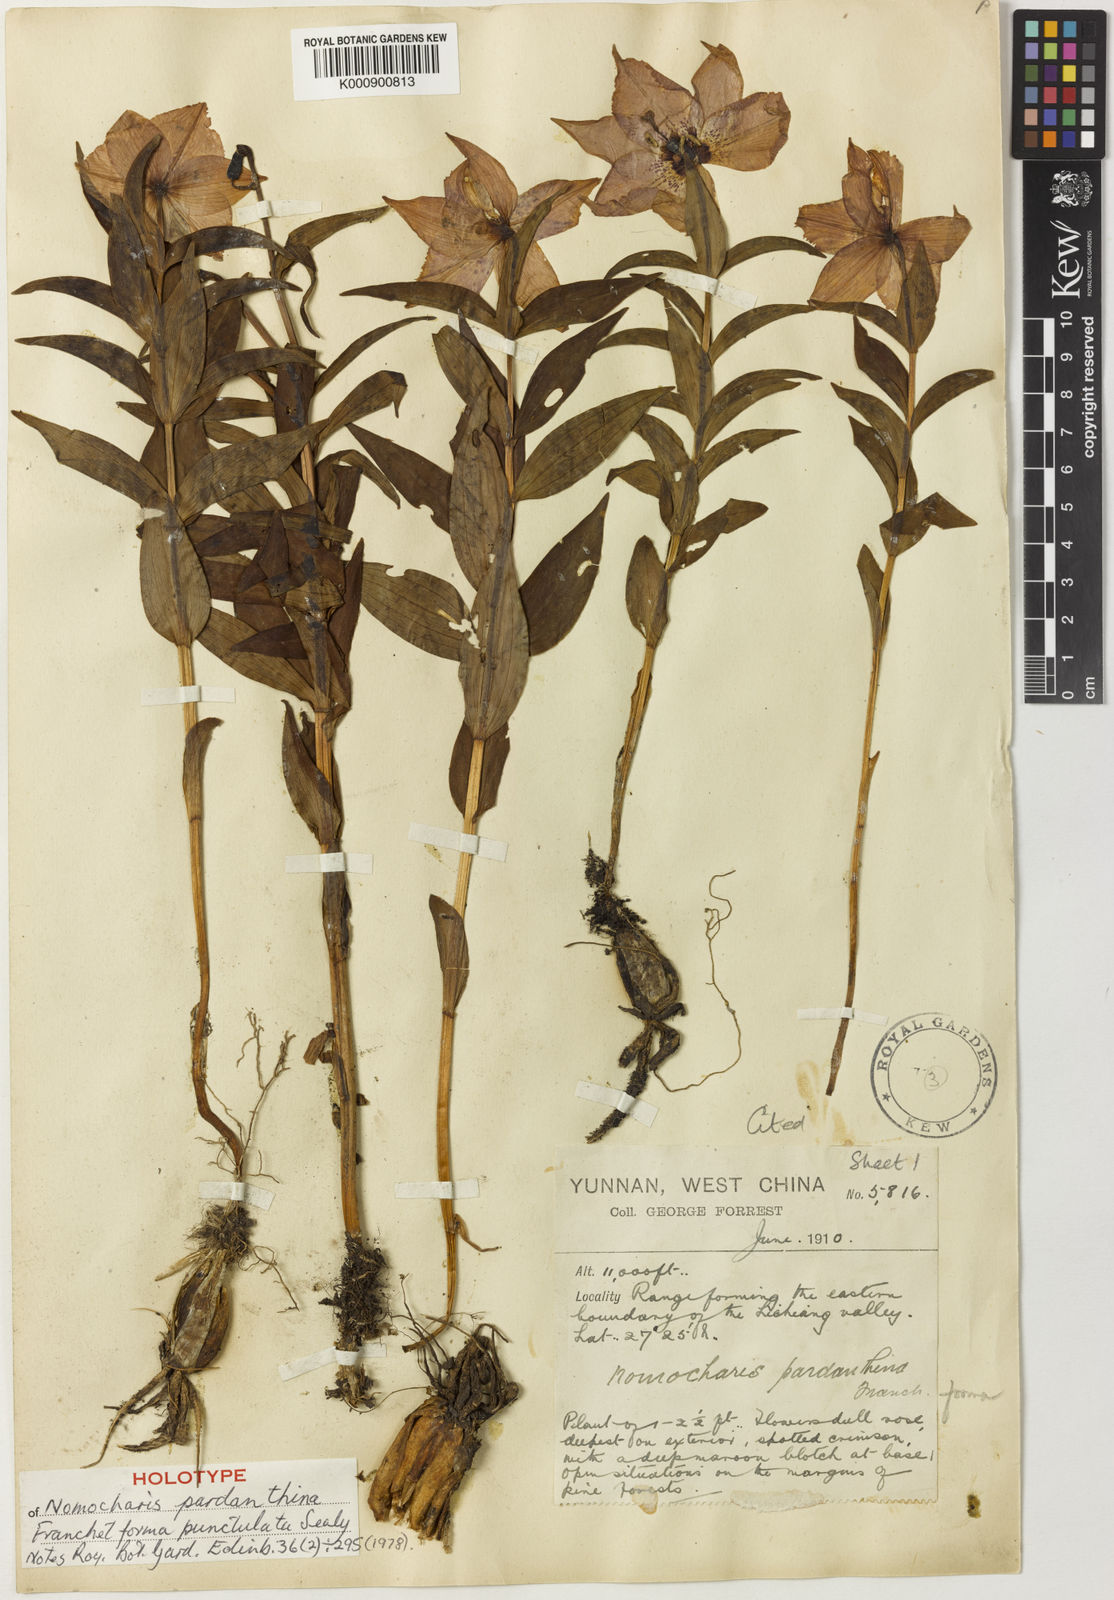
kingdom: Plantae
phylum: Tracheophyta
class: Liliopsida
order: Liliales
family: Liliaceae
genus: Lilium
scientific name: Lilium pardanthinum
